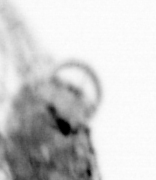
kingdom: Animalia
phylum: Annelida
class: Polychaeta
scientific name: Polychaeta
